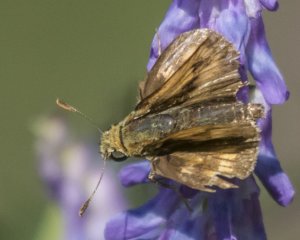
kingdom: Animalia
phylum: Arthropoda
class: Insecta
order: Lepidoptera
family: Hesperiidae
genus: Polites
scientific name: Polites
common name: Long Dash Skipper
